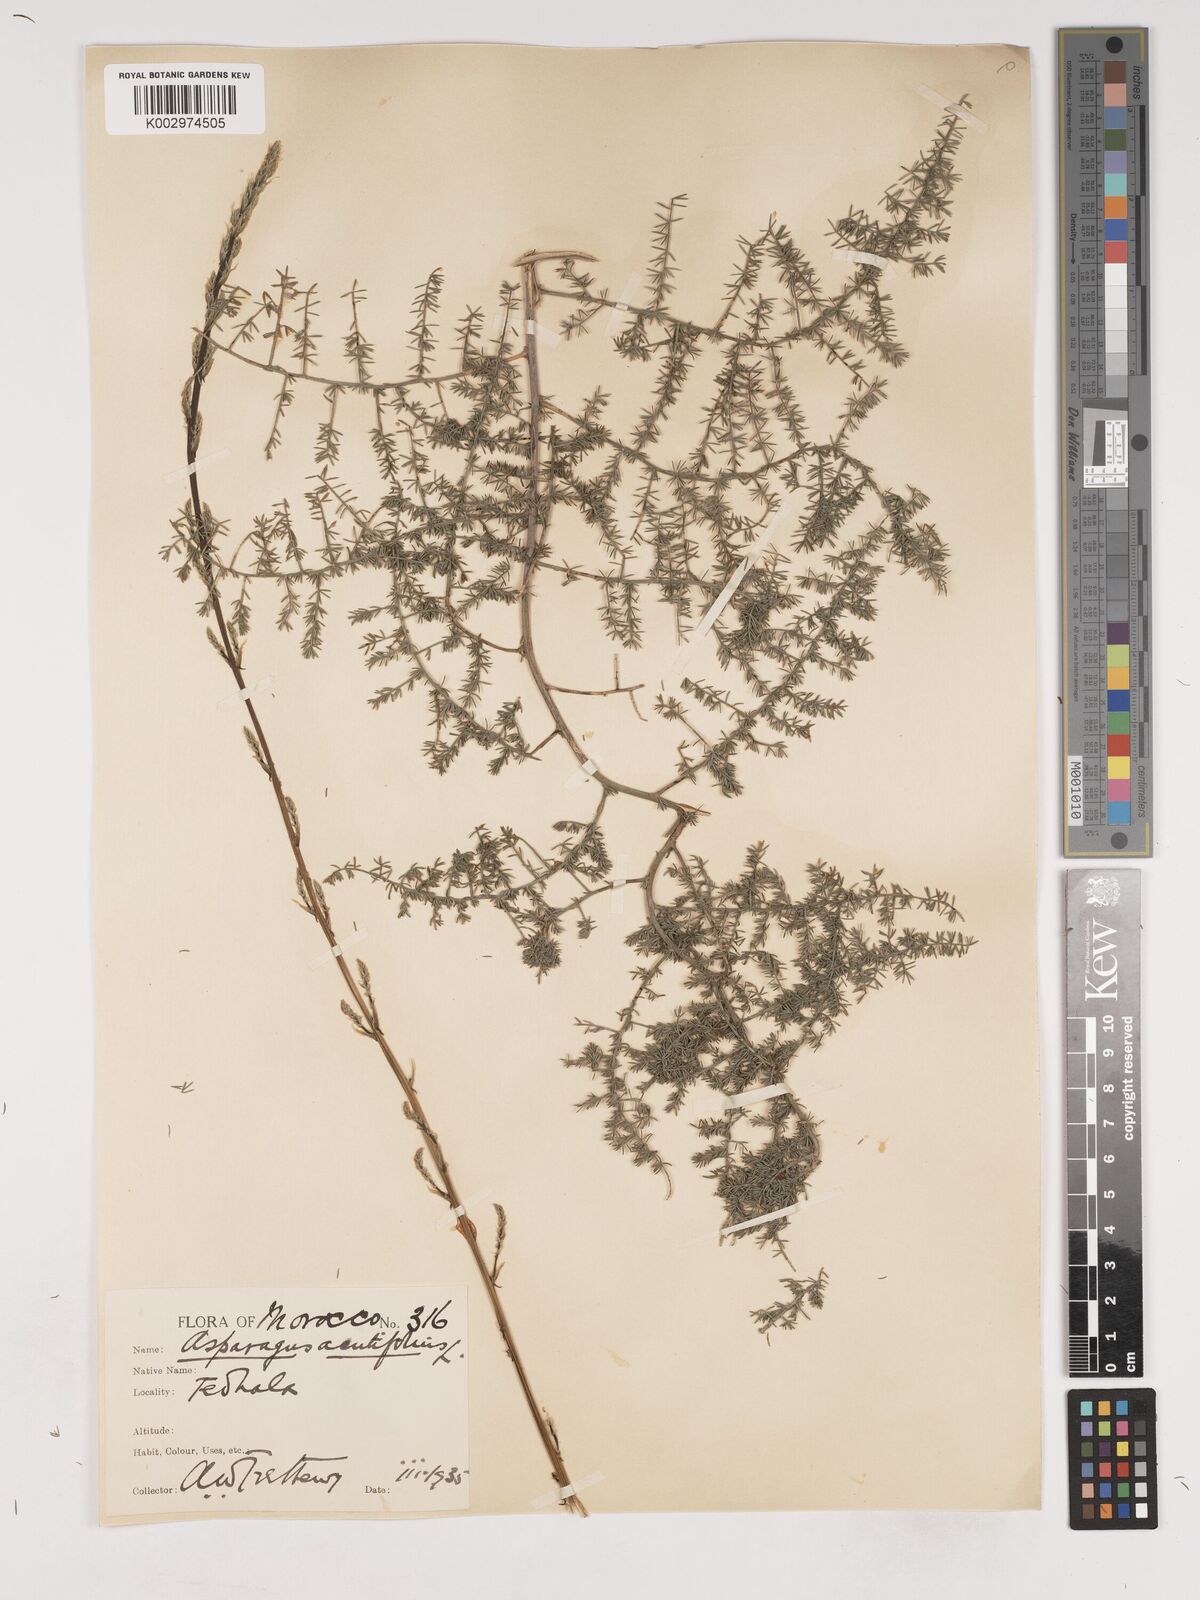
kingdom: Plantae
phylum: Tracheophyta
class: Liliopsida
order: Asparagales
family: Asparagaceae
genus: Asparagus
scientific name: Asparagus acutifolius
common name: Wild asparagus
